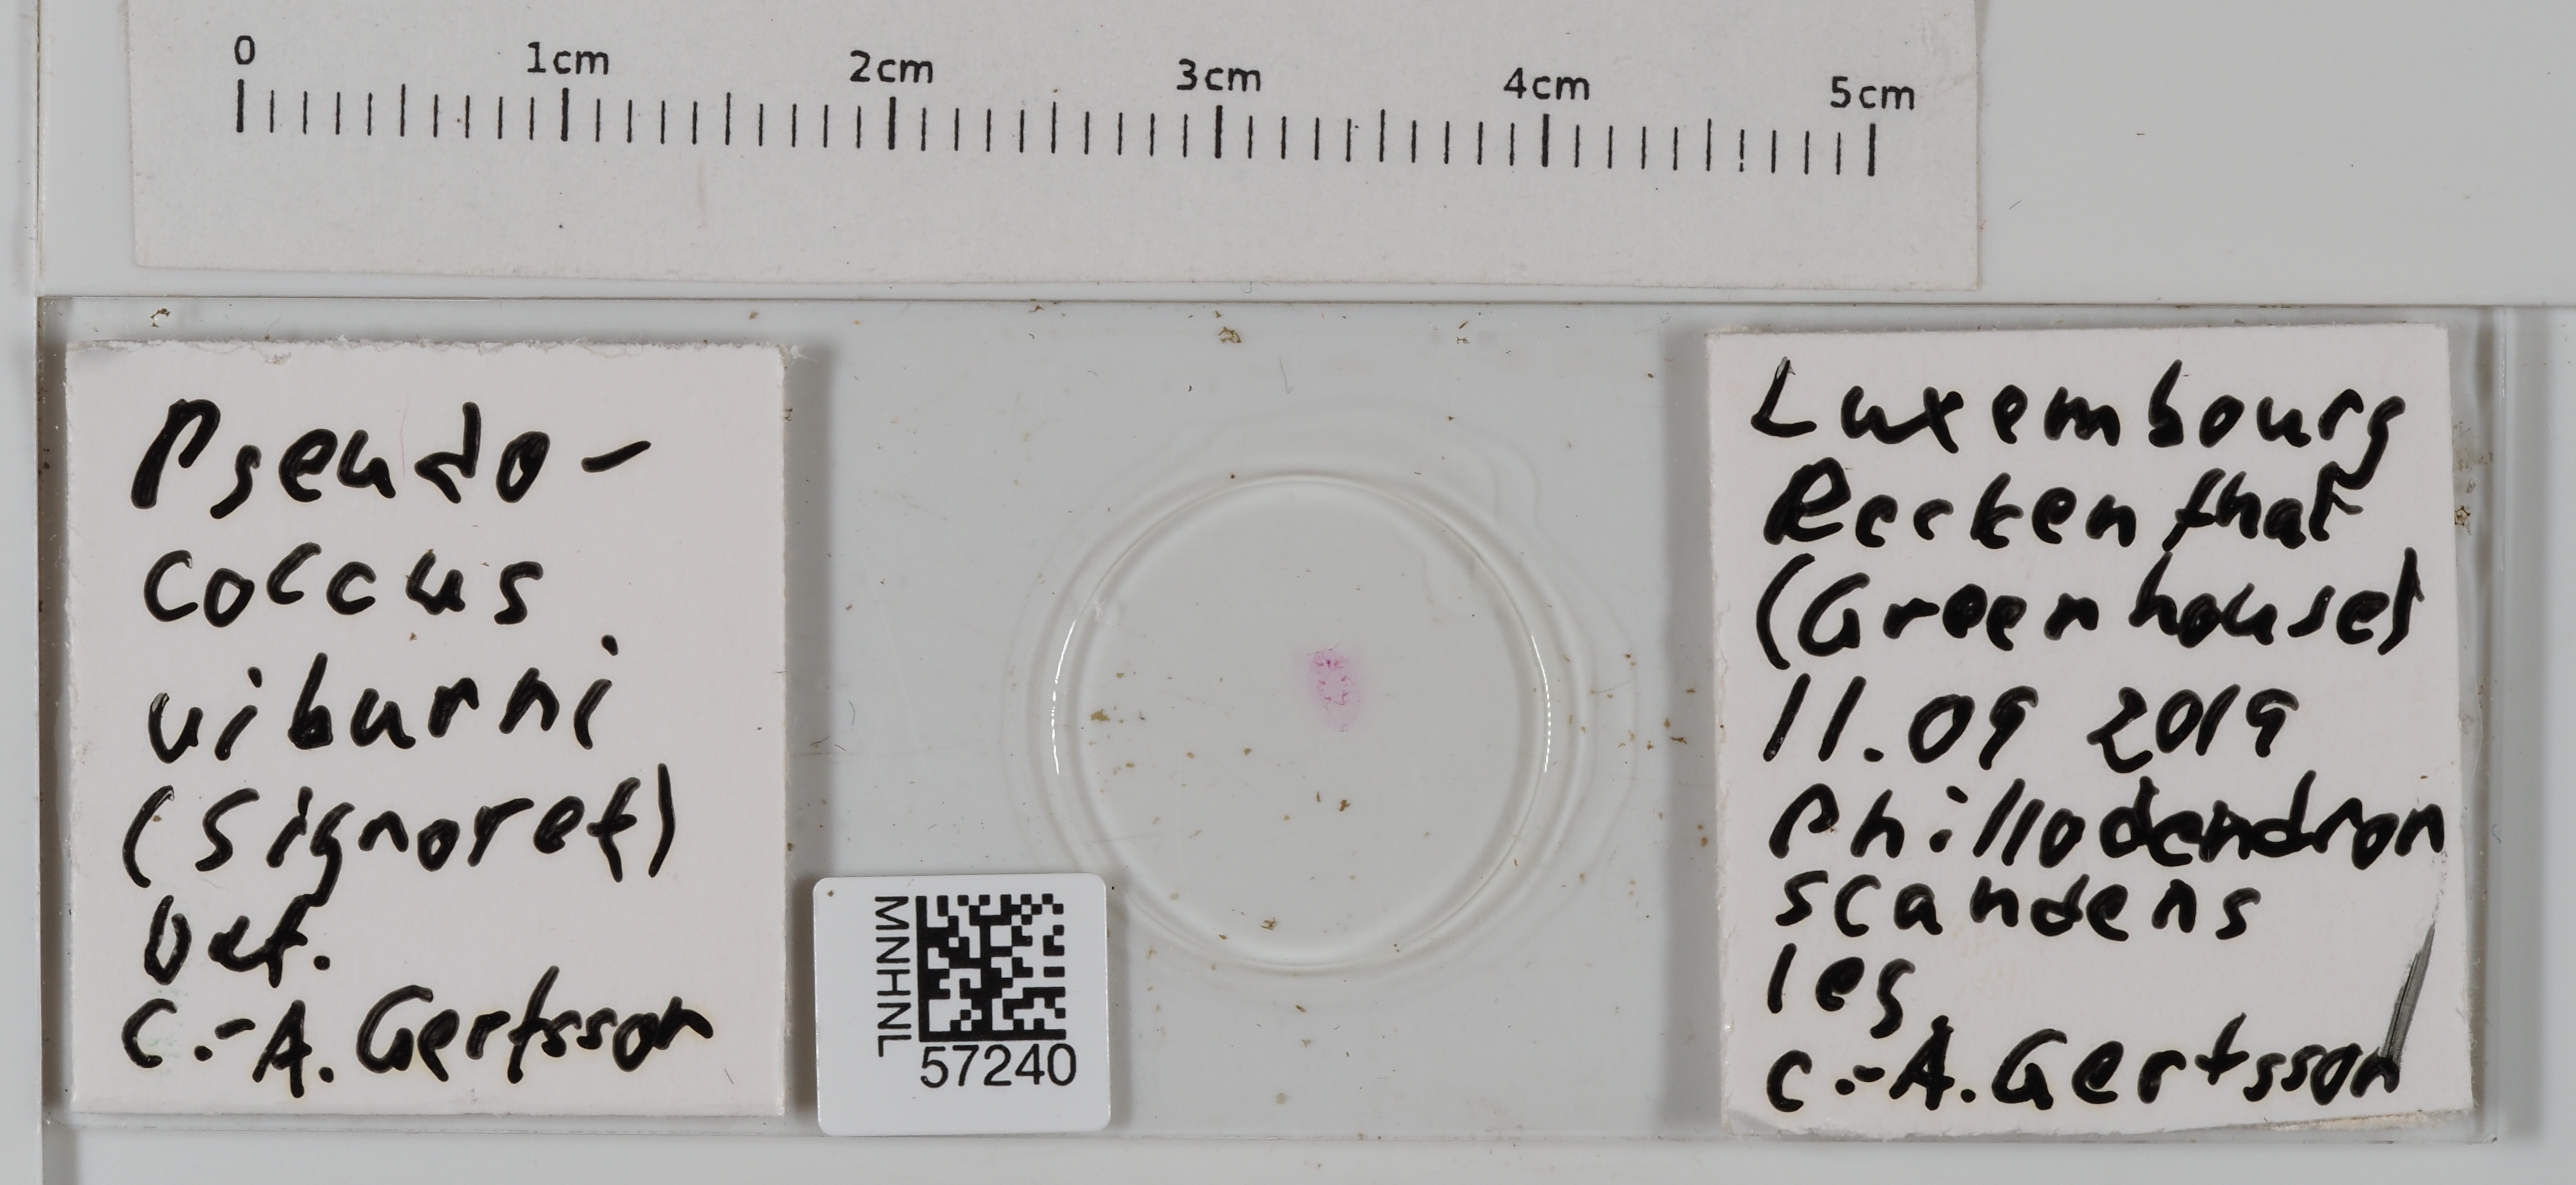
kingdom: Animalia
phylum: Arthropoda
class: Insecta
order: Hemiptera
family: Pseudococcidae
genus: Pseudococcus
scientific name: Pseudococcus viburni
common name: Obscure mealybug
